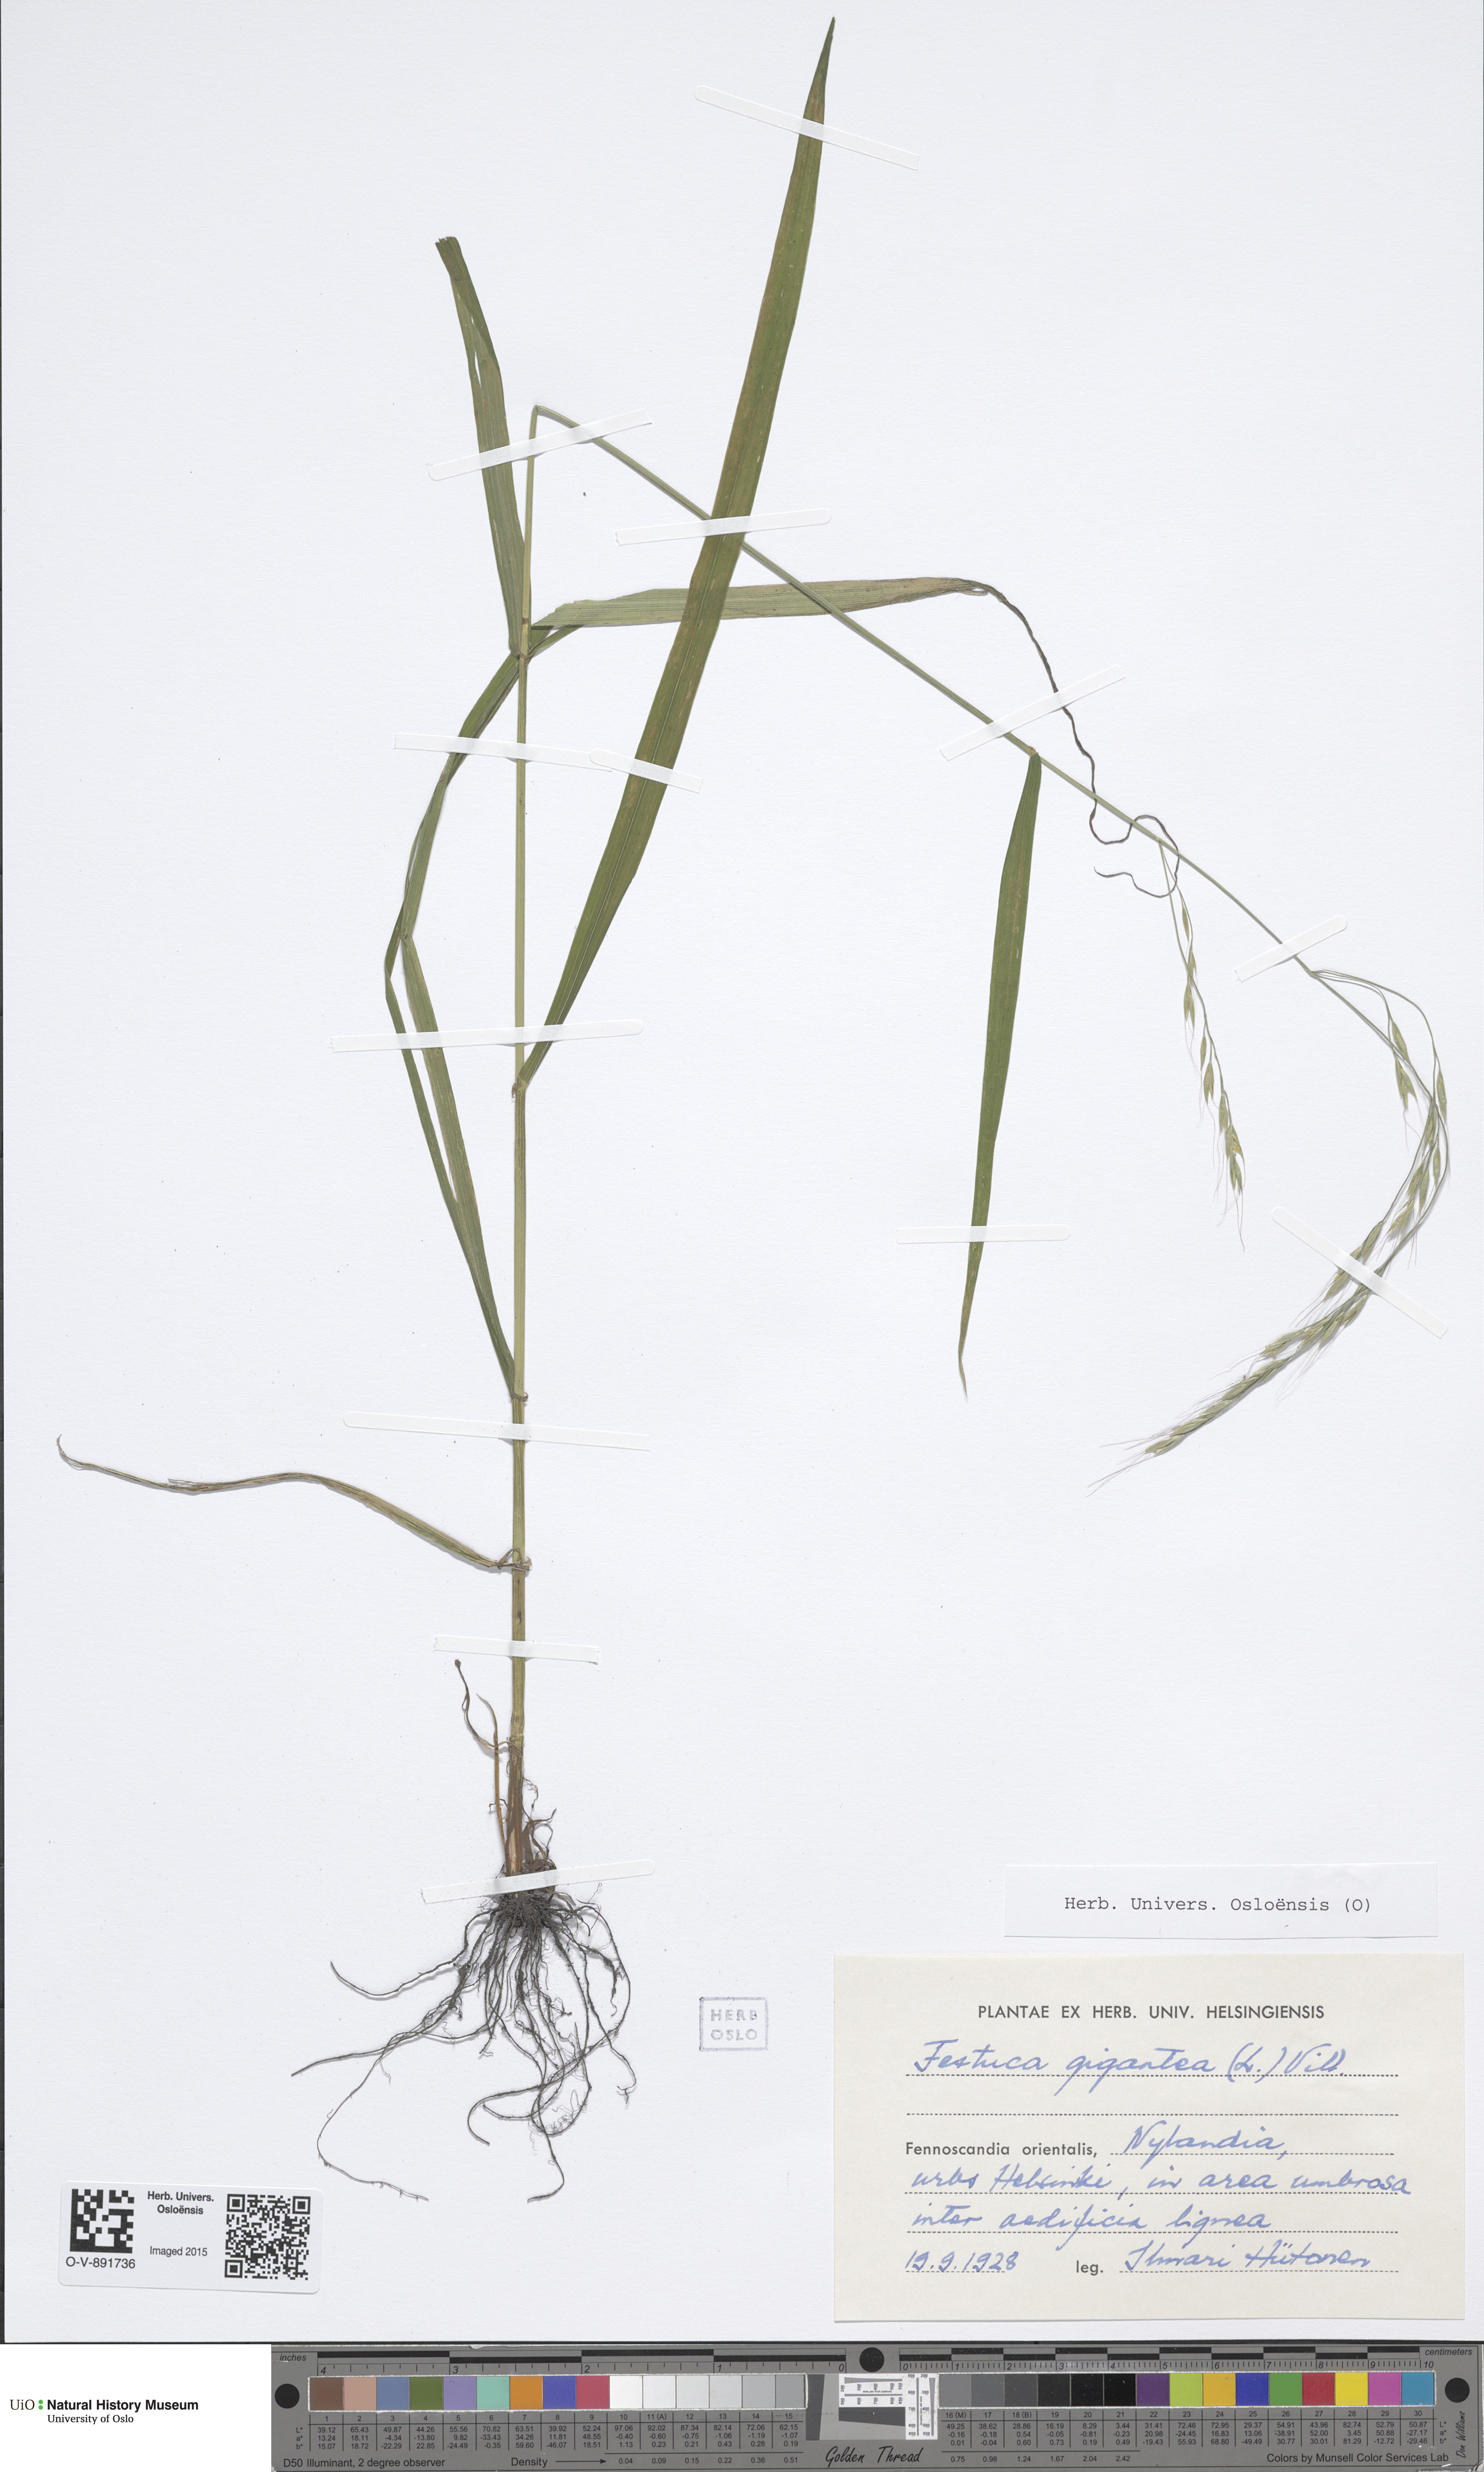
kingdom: Plantae
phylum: Tracheophyta
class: Liliopsida
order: Poales
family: Poaceae
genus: Lolium
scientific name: Lolium giganteum
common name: Giant fescue
